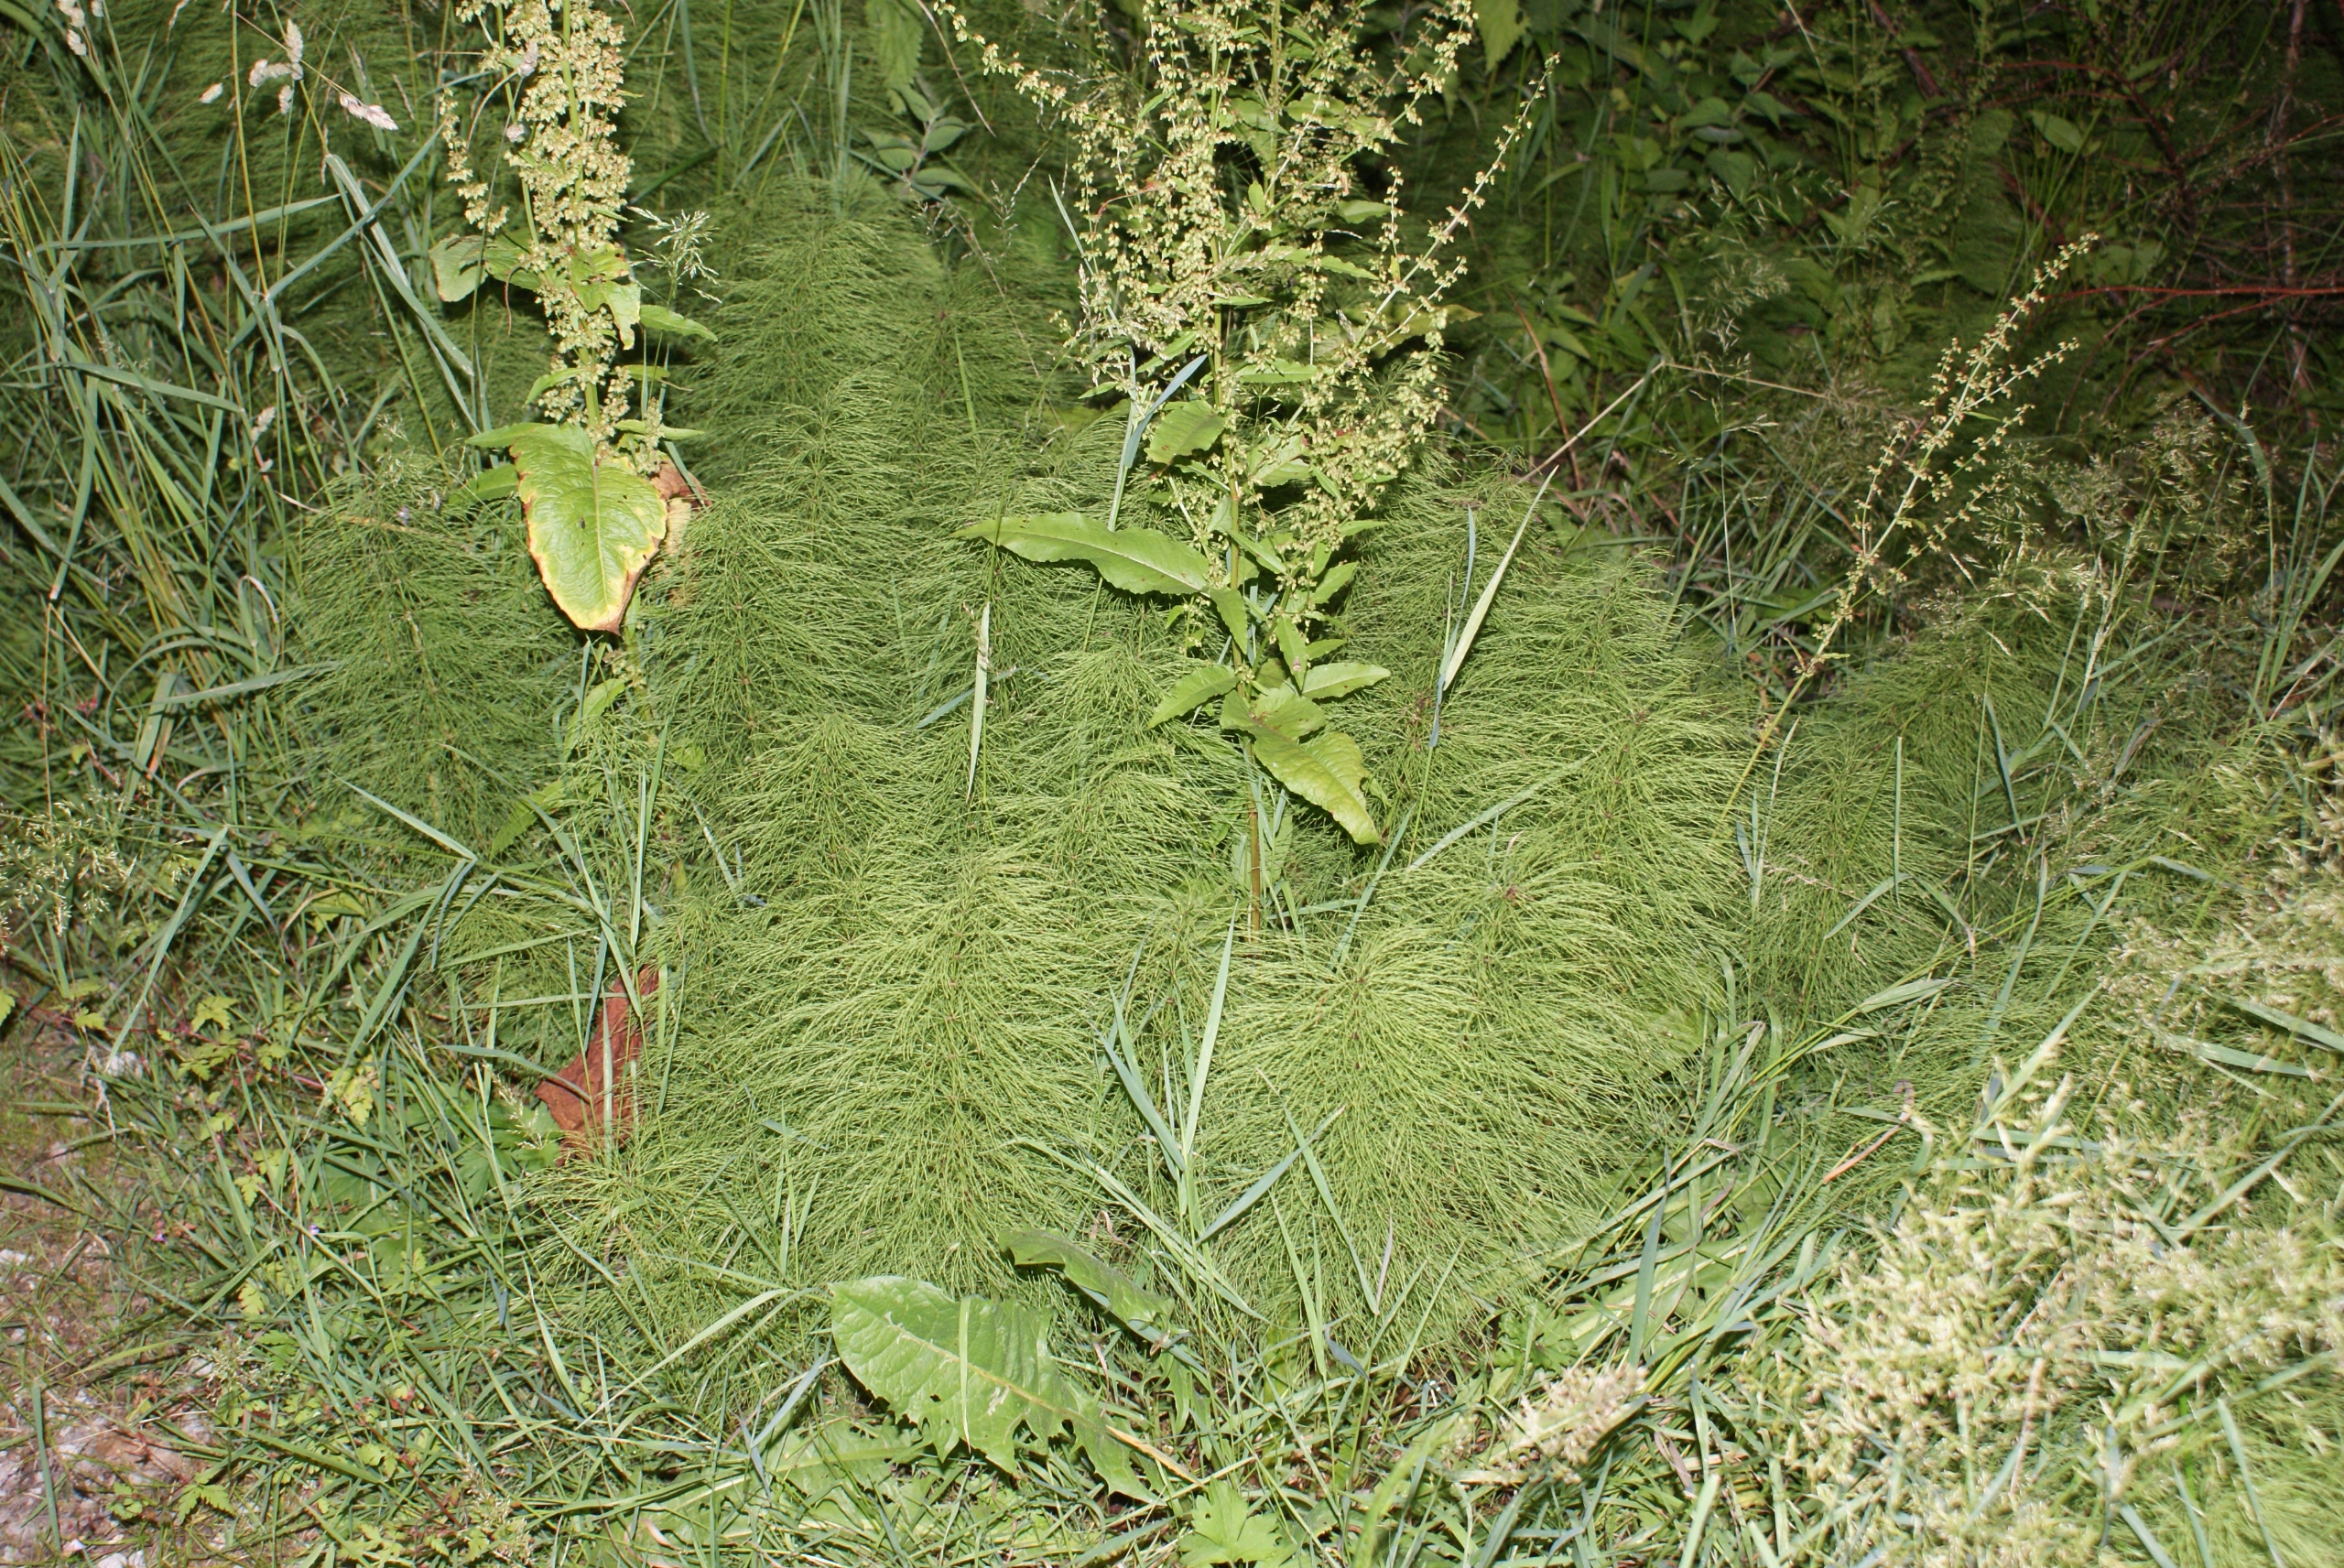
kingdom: Plantae
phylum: Tracheophyta
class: Polypodiopsida
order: Equisetales
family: Equisetaceae
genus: Equisetum
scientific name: Equisetum sylvaticum
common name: Skov-padderok
